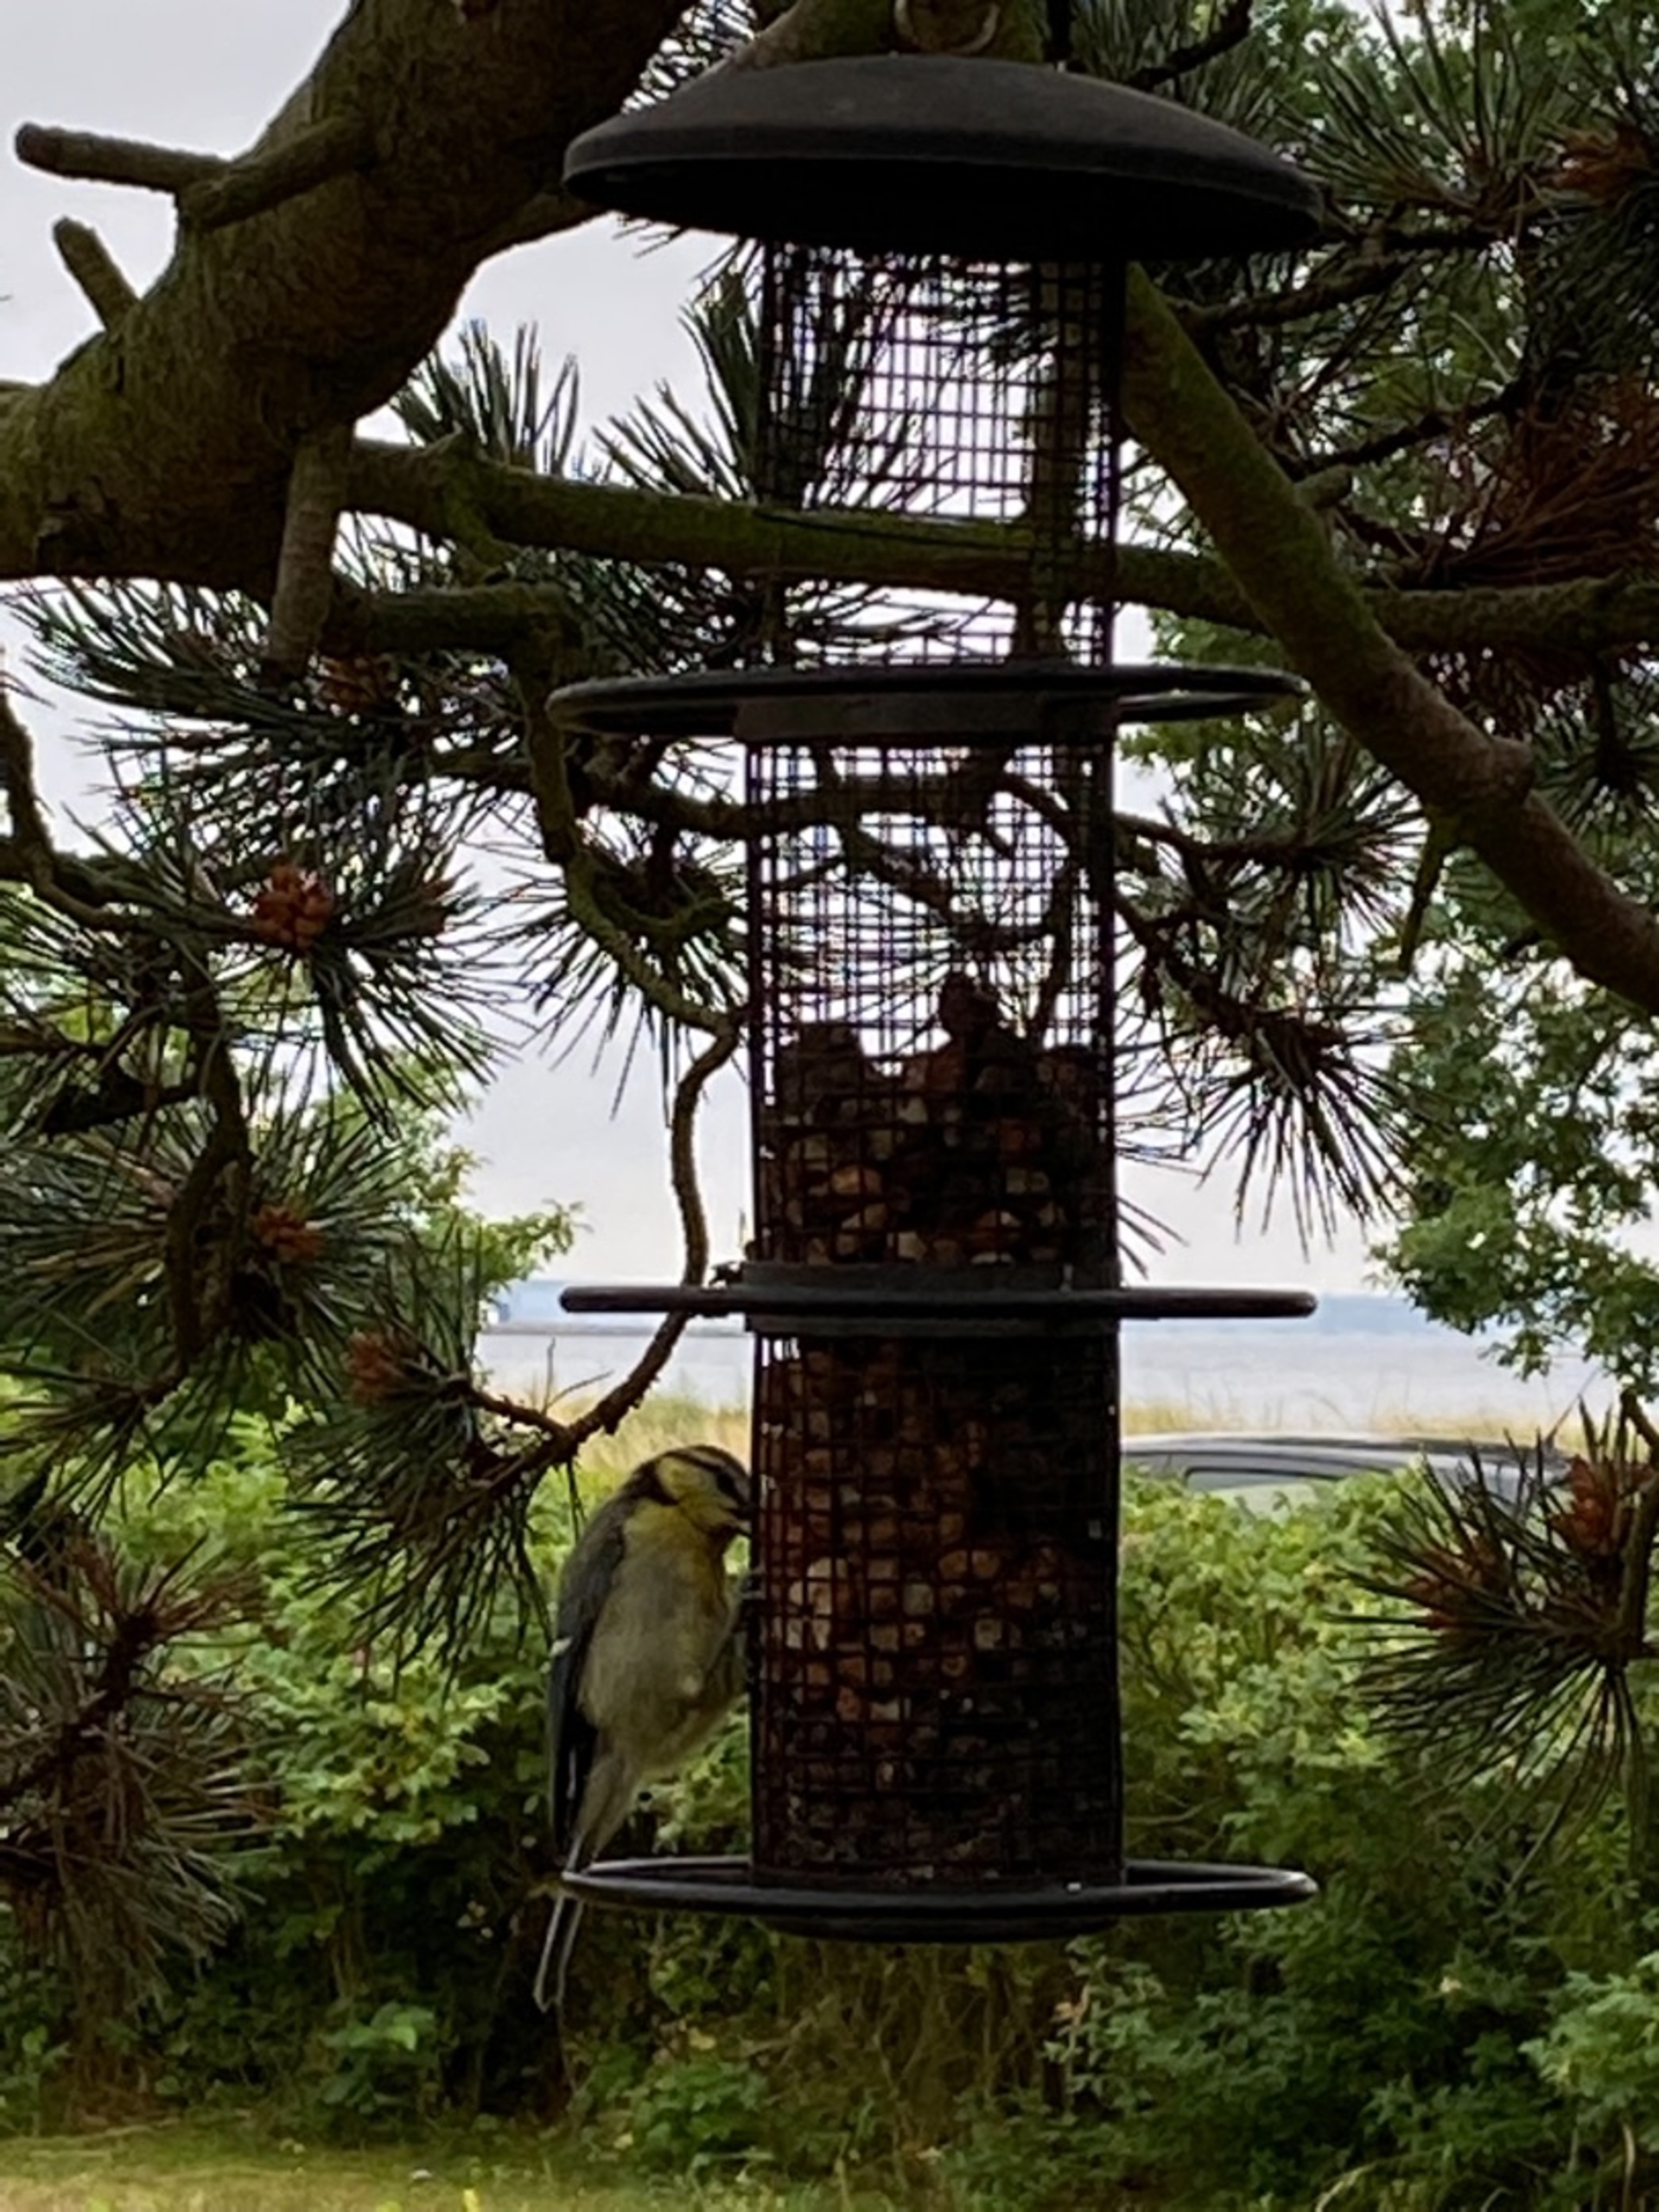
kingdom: Animalia
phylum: Chordata
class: Aves
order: Passeriformes
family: Paridae
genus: Cyanistes
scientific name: Cyanistes caeruleus
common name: Blåmejse
